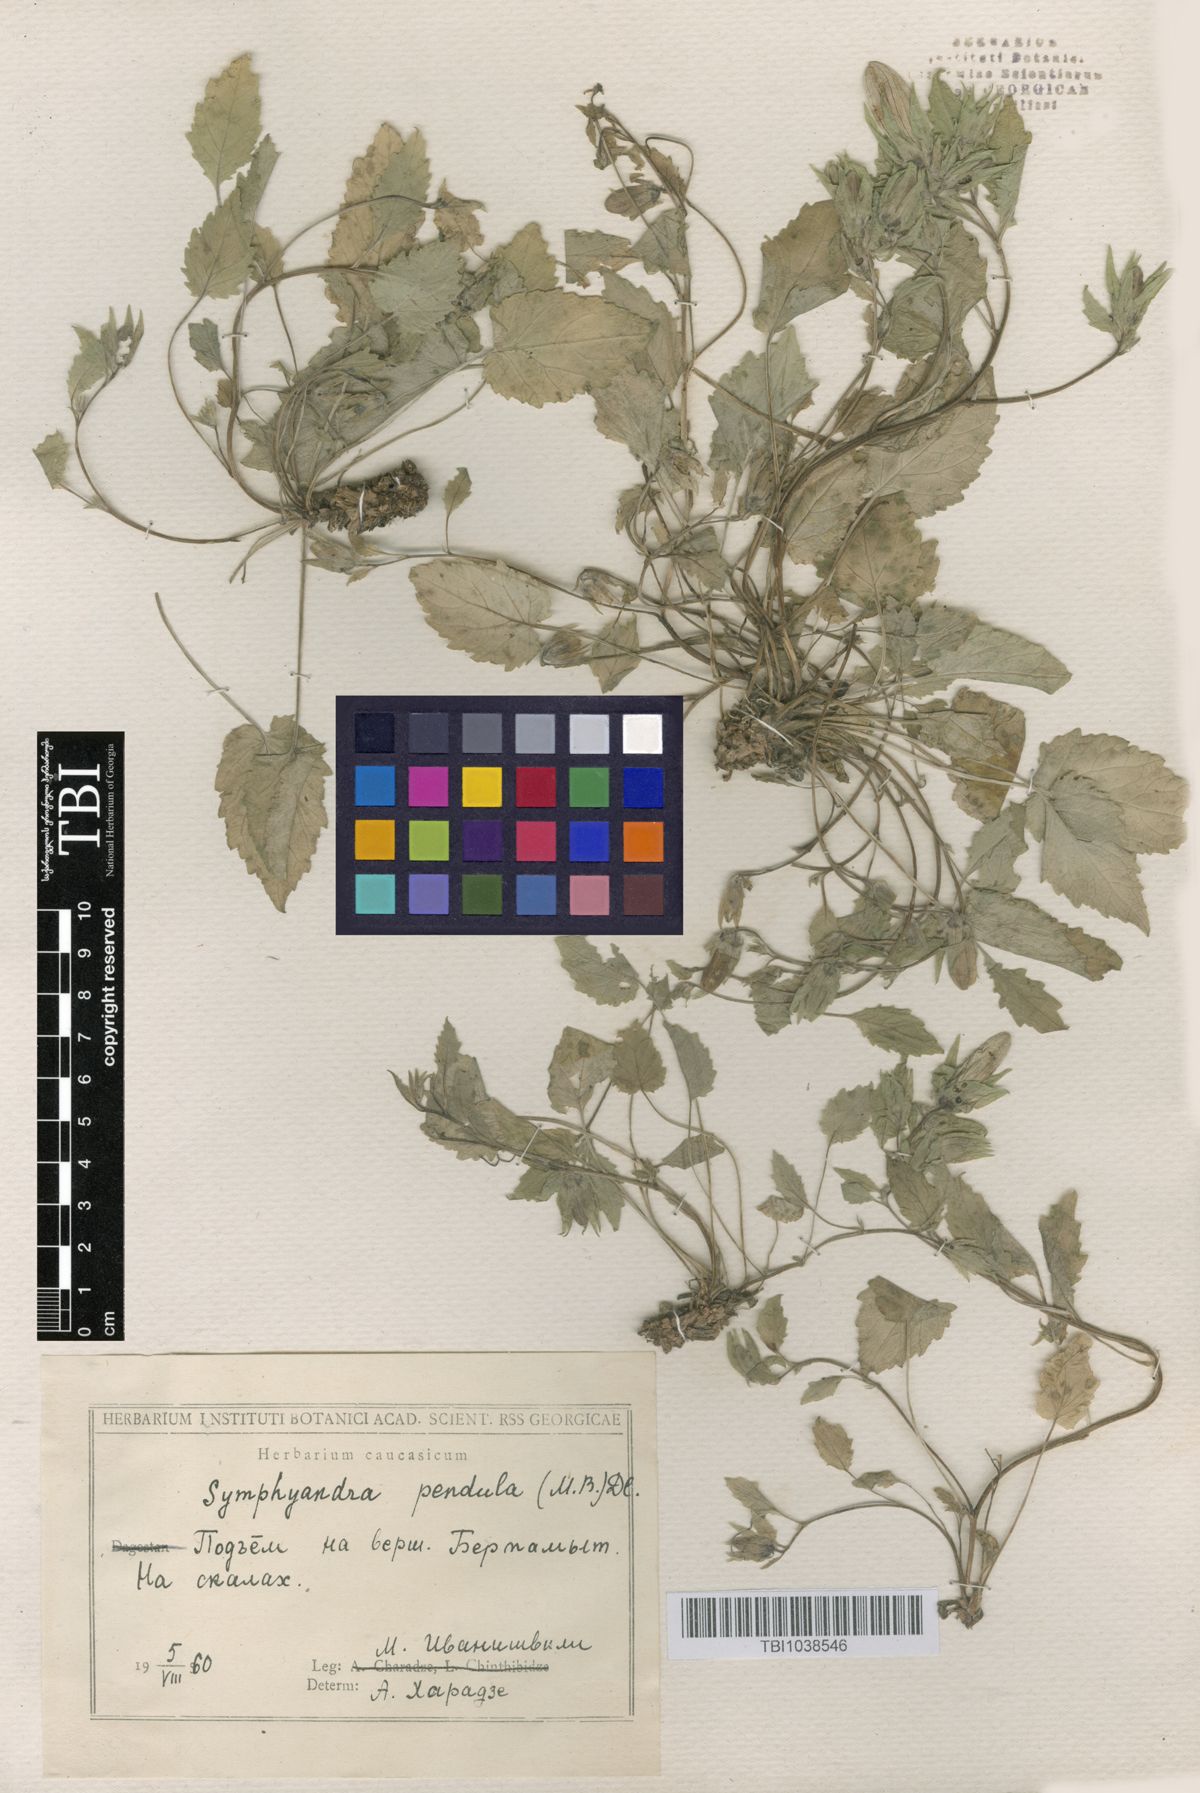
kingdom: Plantae
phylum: Tracheophyta
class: Magnoliopsida
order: Asterales
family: Campanulaceae
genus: Campanula
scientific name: Campanula pendula
